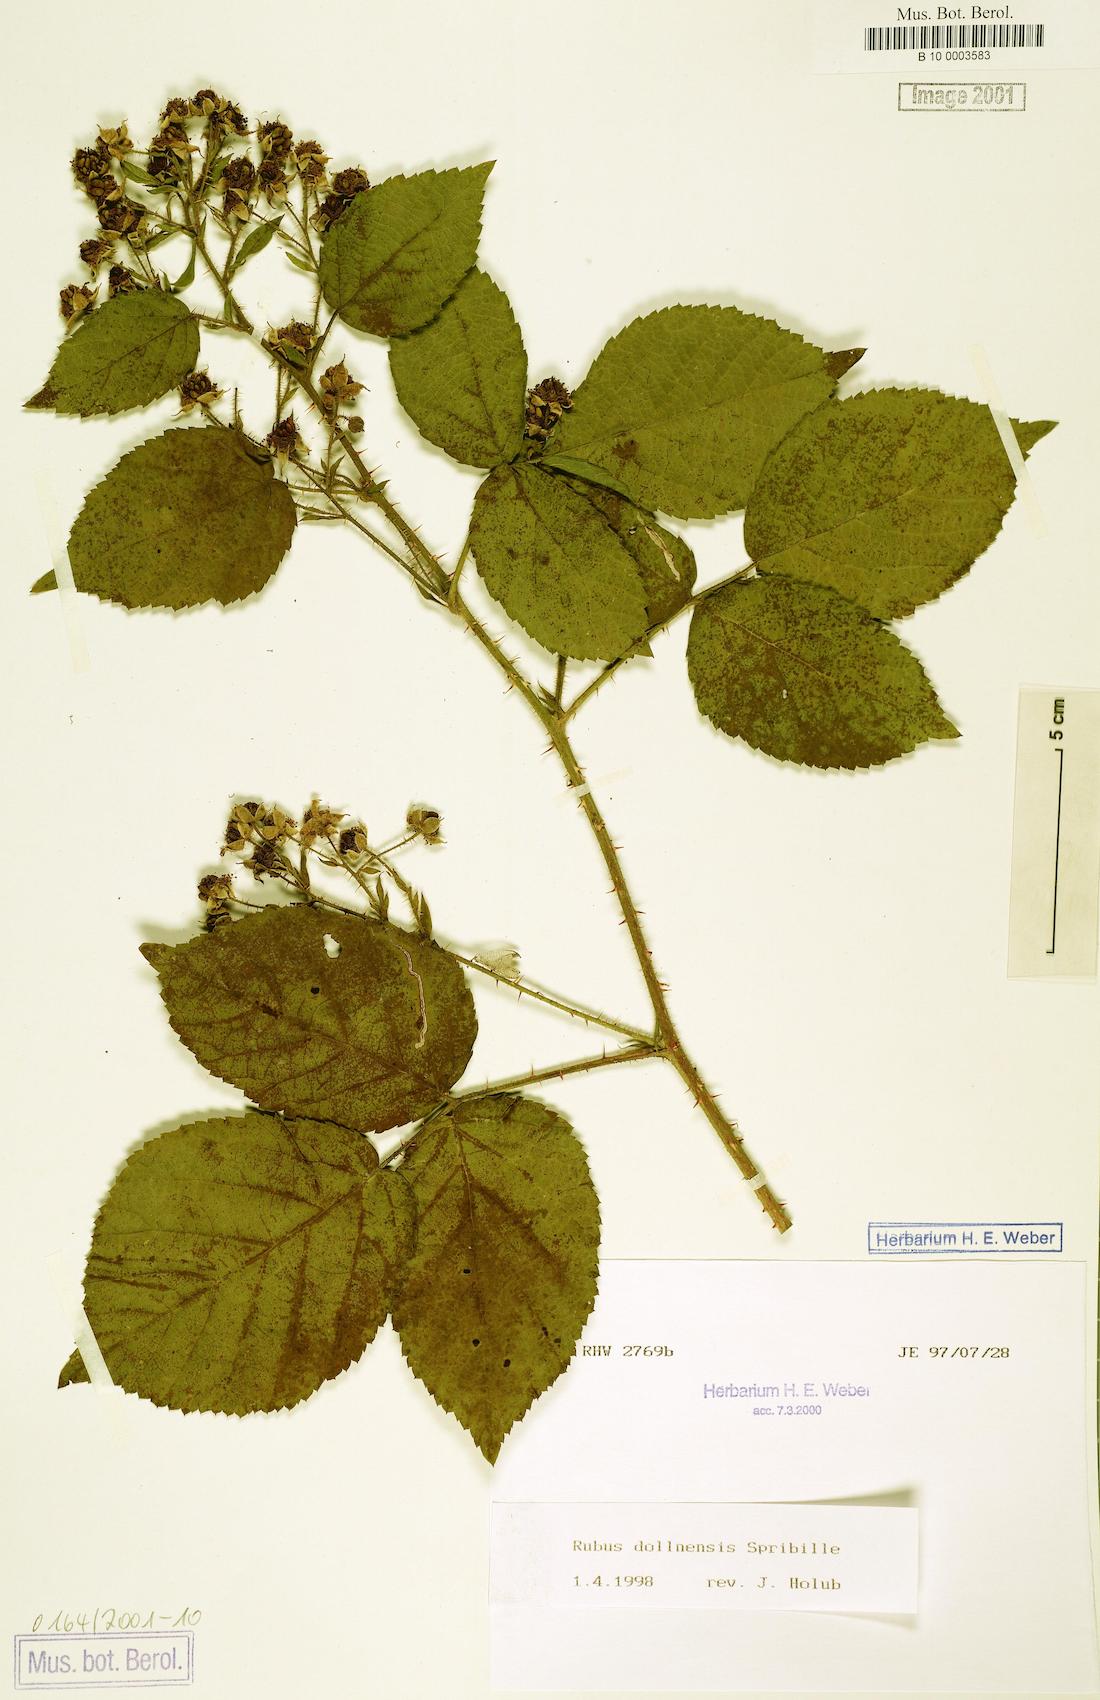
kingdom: Plantae
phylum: Tracheophyta
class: Magnoliopsida
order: Rosales
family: Rosaceae
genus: Rubus
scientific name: Rubus dollnensis
